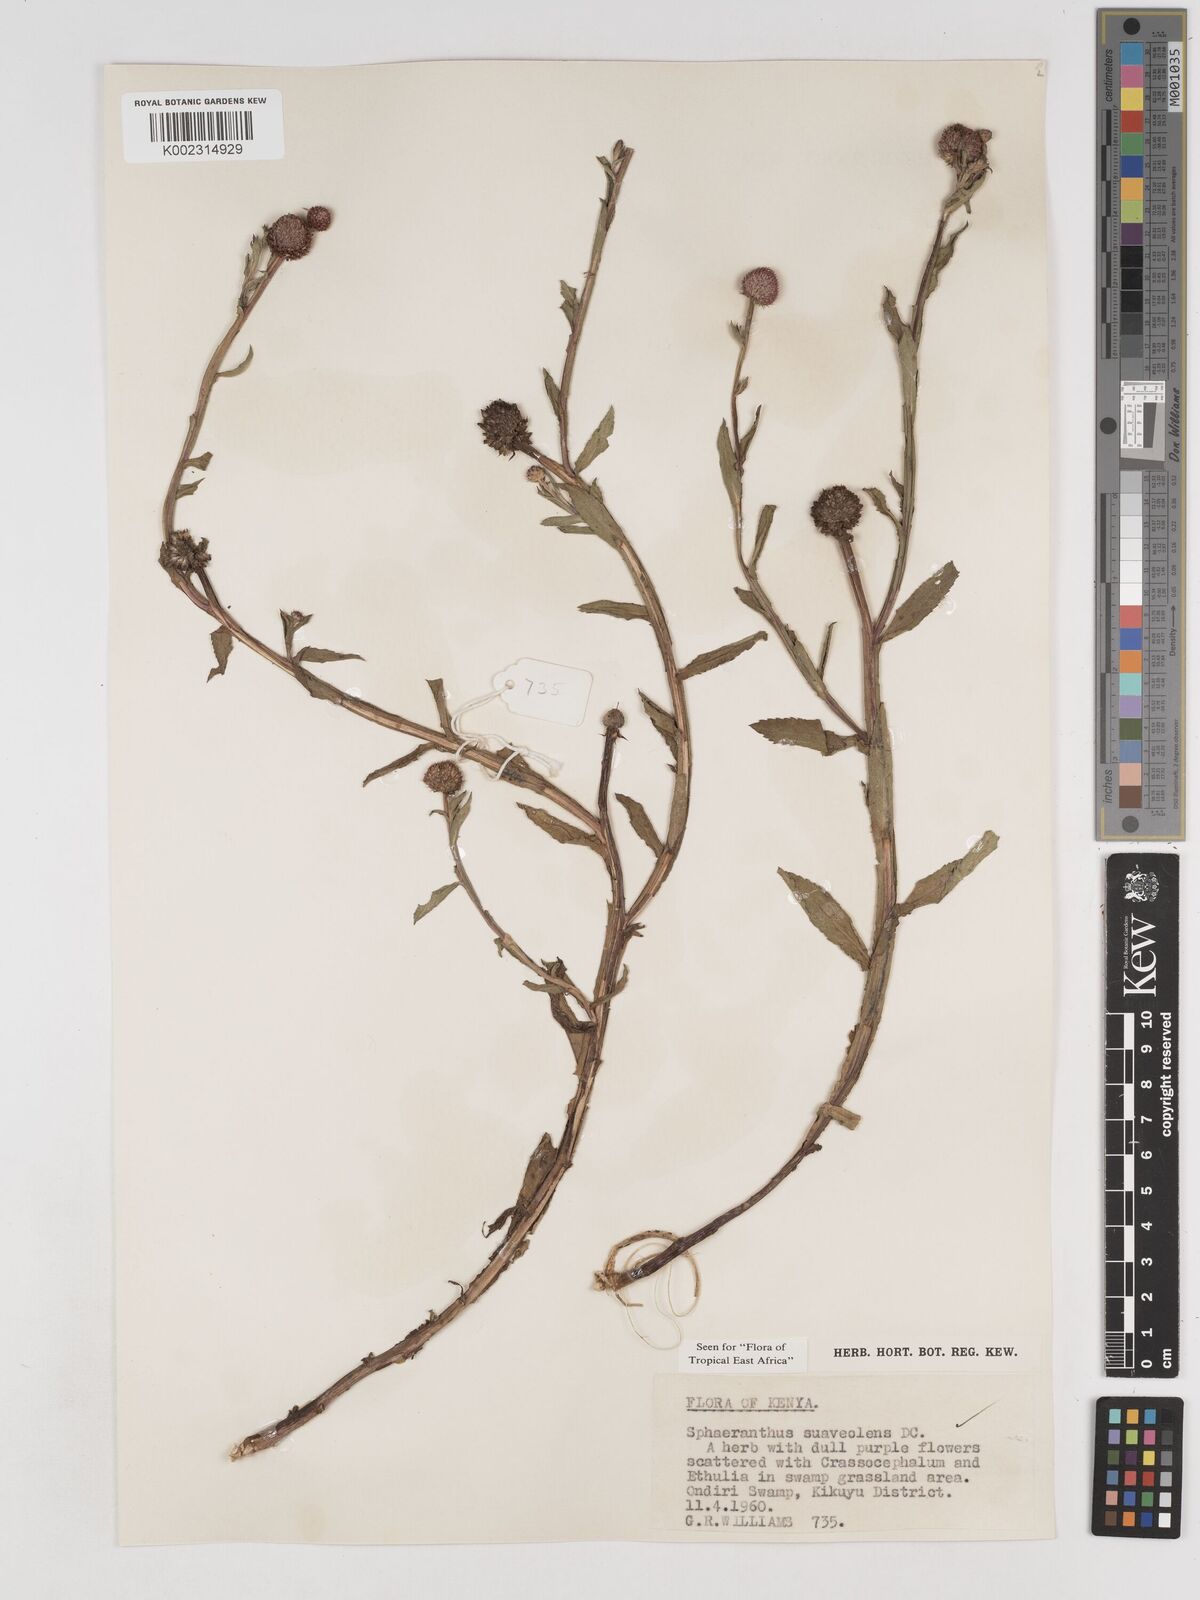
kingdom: Plantae
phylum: Tracheophyta
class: Magnoliopsida
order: Asterales
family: Asteraceae
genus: Sphaeranthus
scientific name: Sphaeranthus suaveolens
